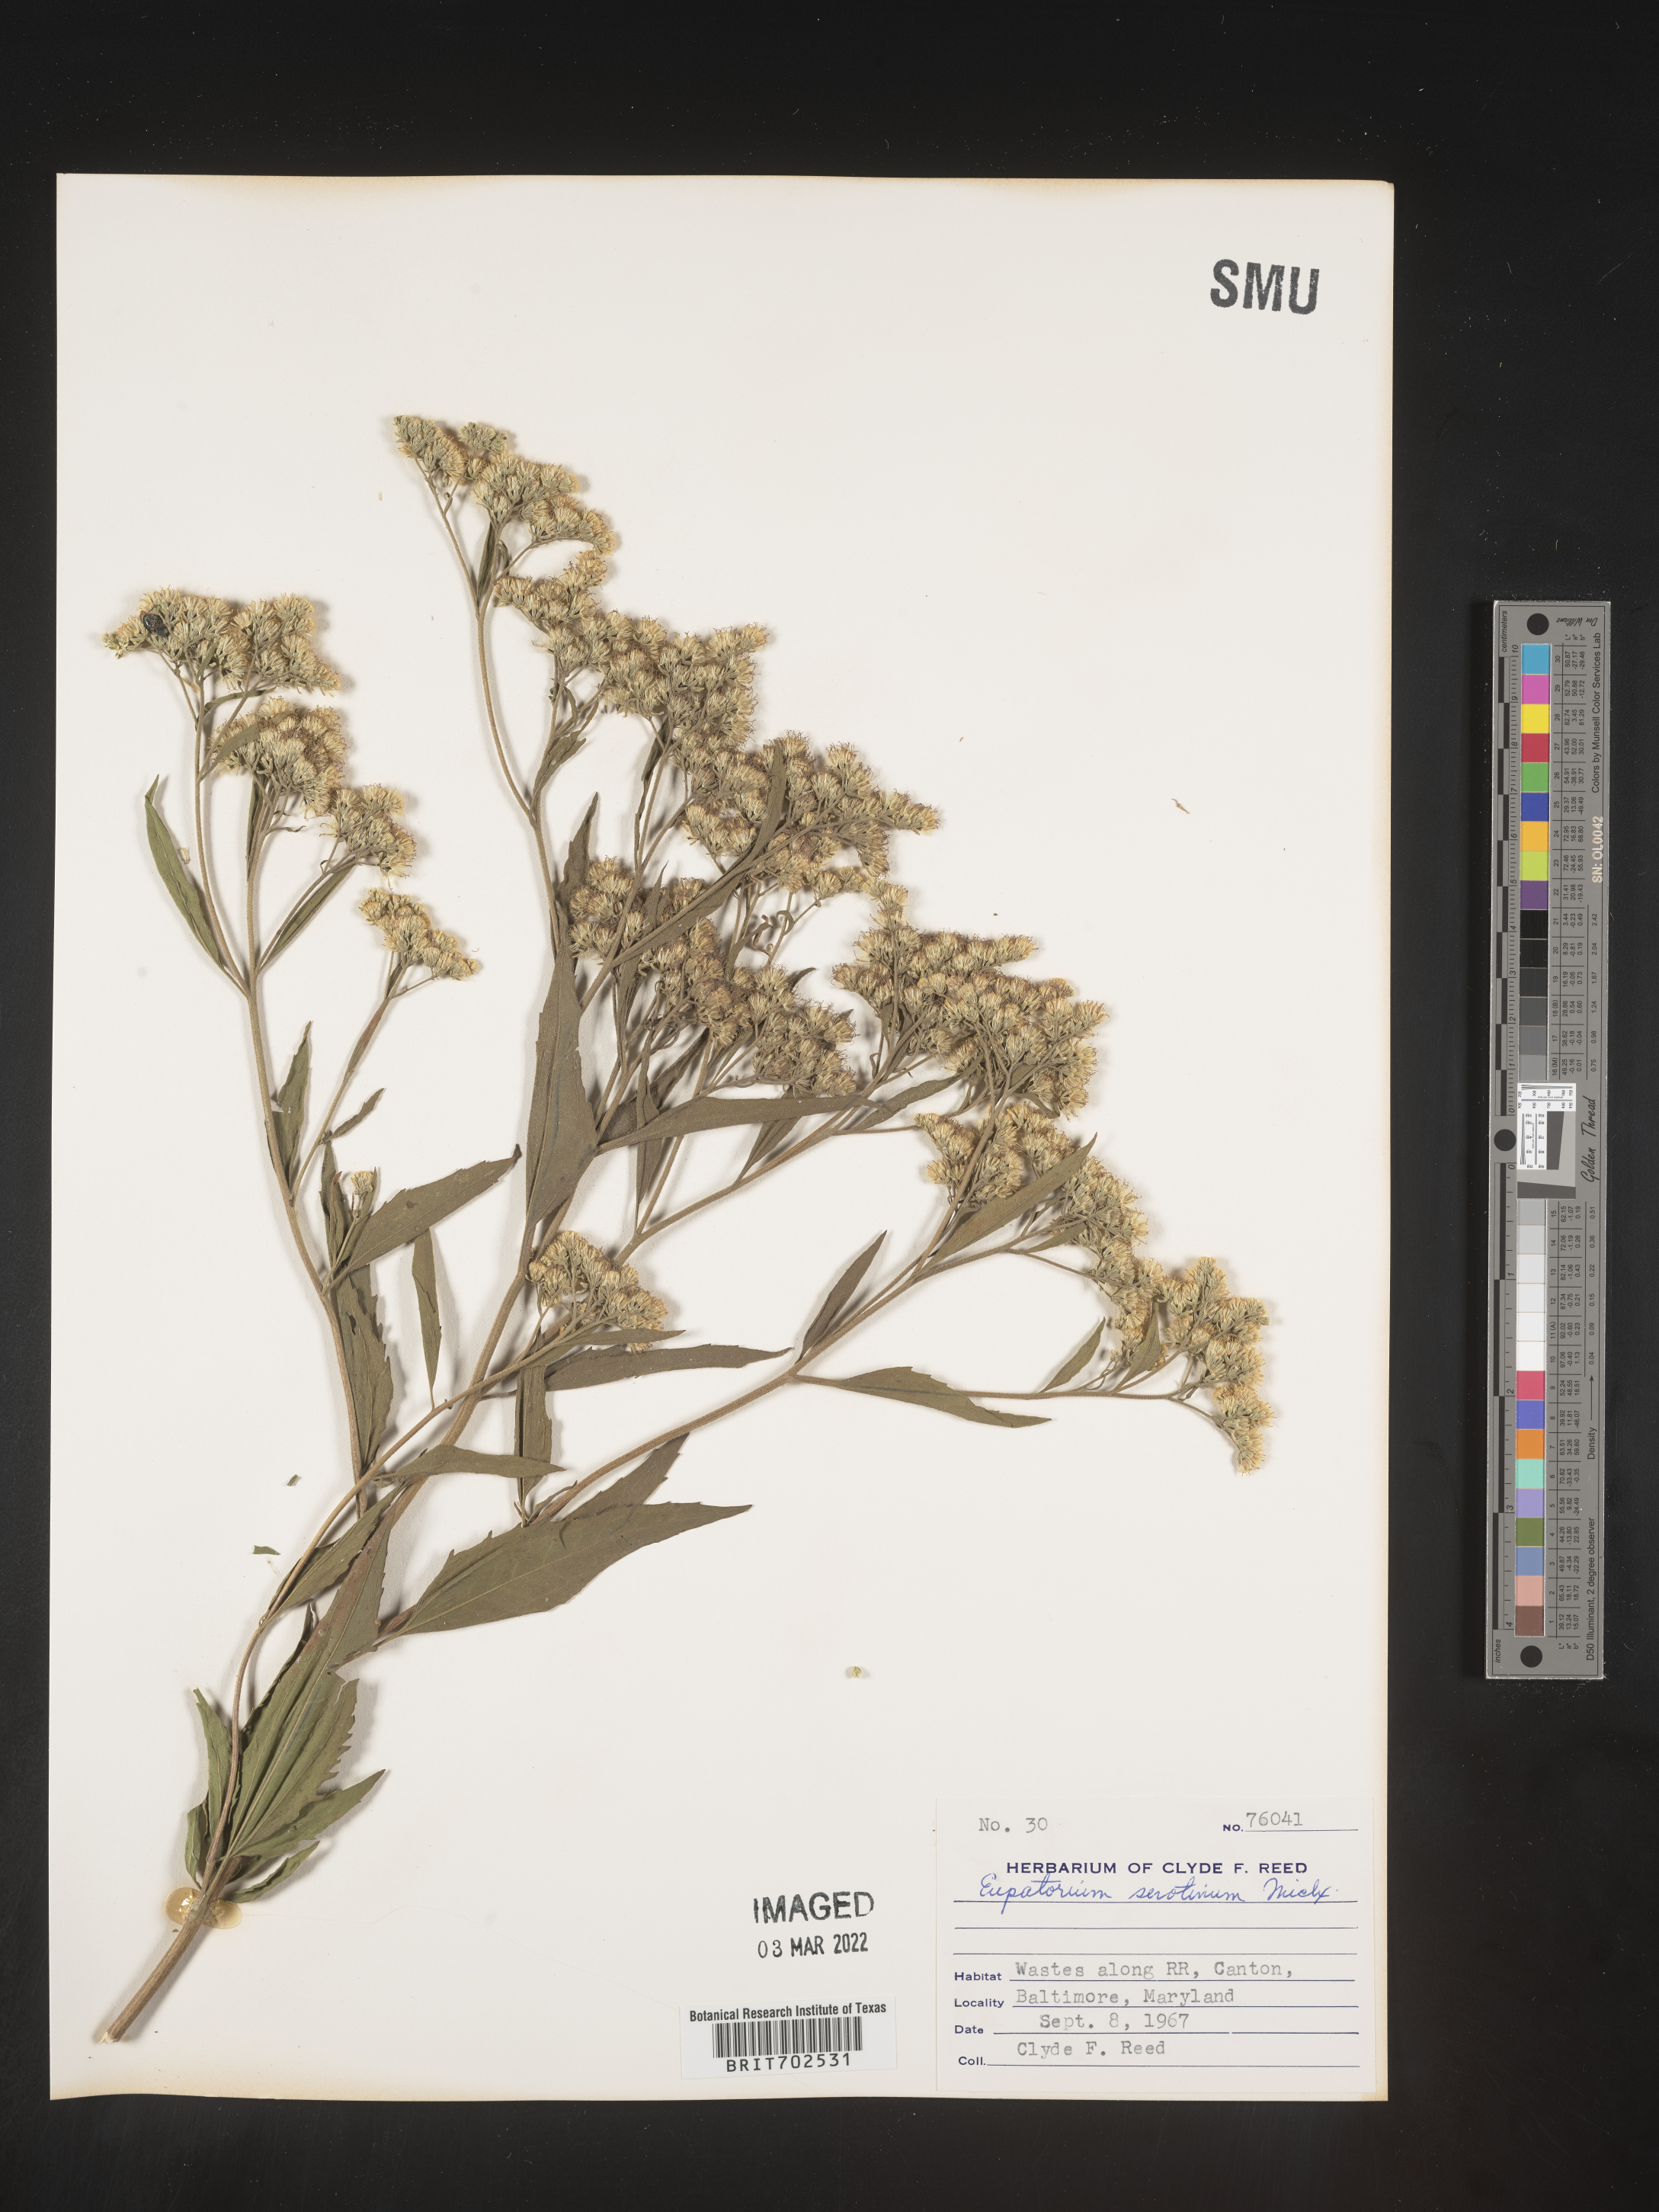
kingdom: Plantae
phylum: Tracheophyta
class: Magnoliopsida
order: Asterales
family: Asteraceae
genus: Eupatorium
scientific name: Eupatorium serotinum
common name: Late boneset
